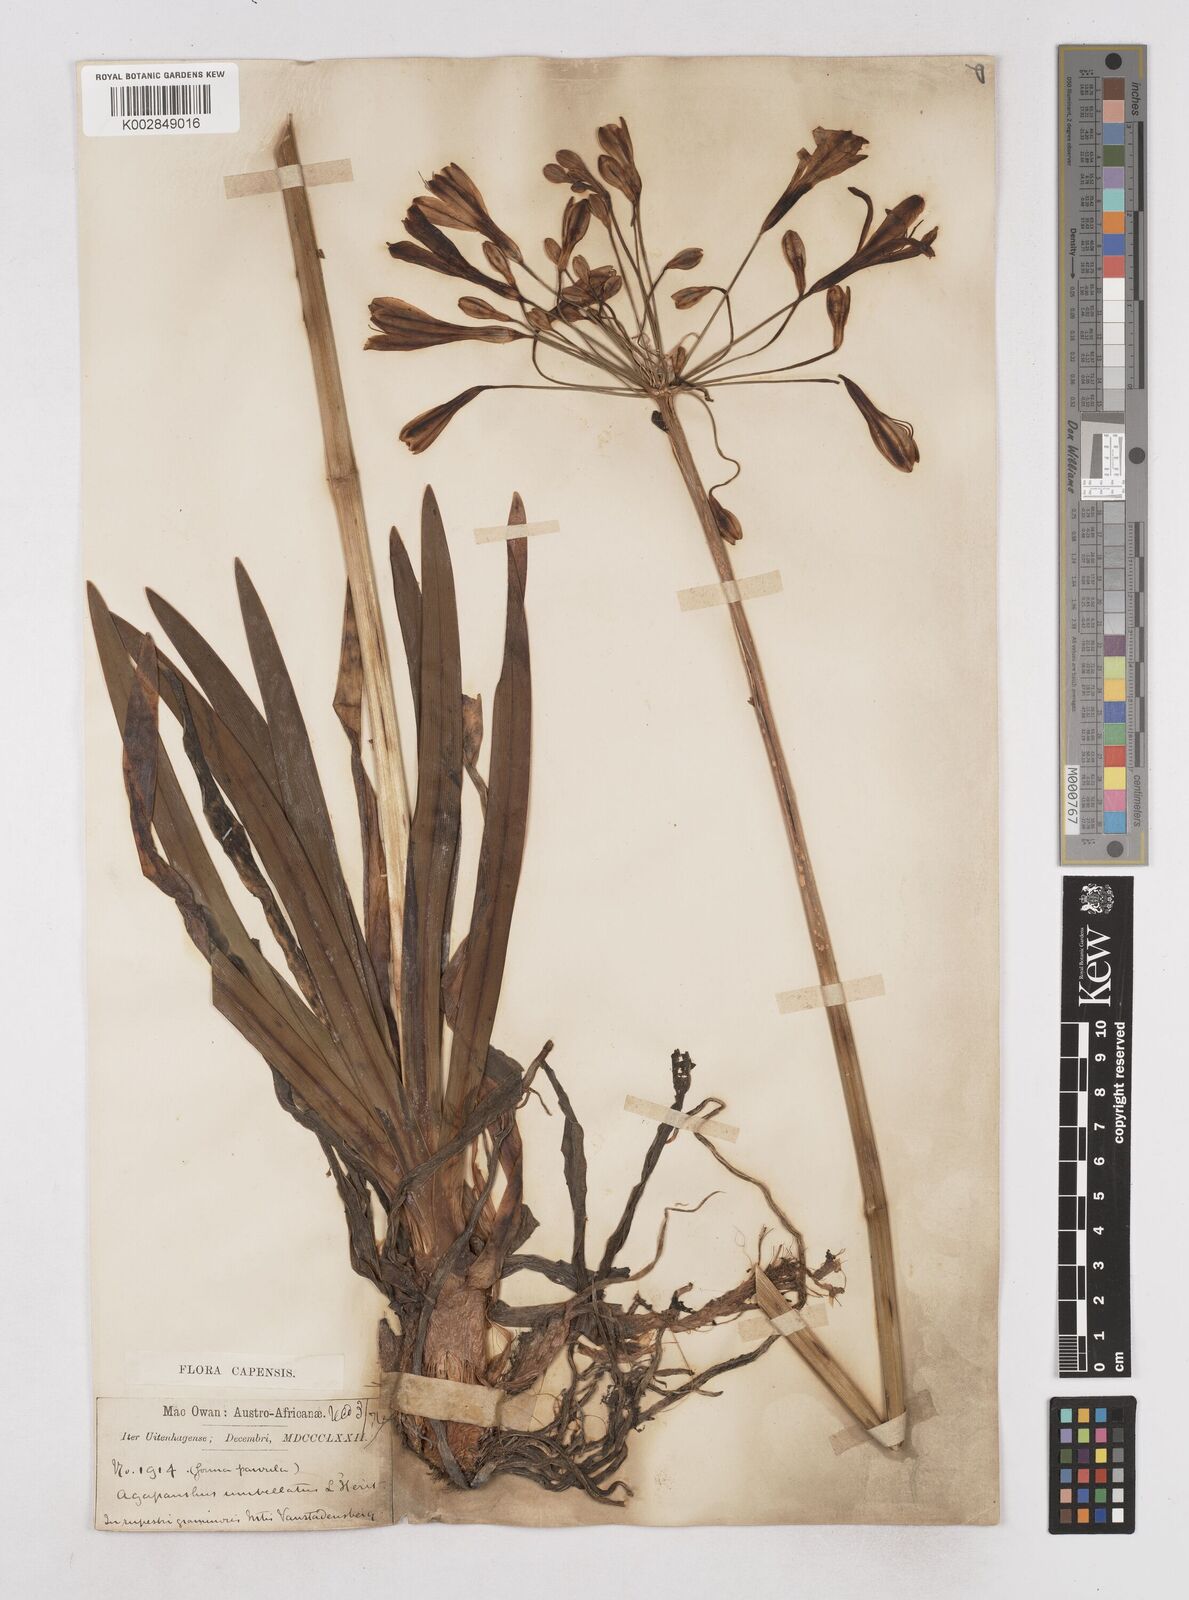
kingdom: Plantae
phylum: Tracheophyta
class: Liliopsida
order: Asparagales
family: Amaryllidaceae
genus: Agapanthus
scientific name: Agapanthus africanus
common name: Lily-of-the-nile
